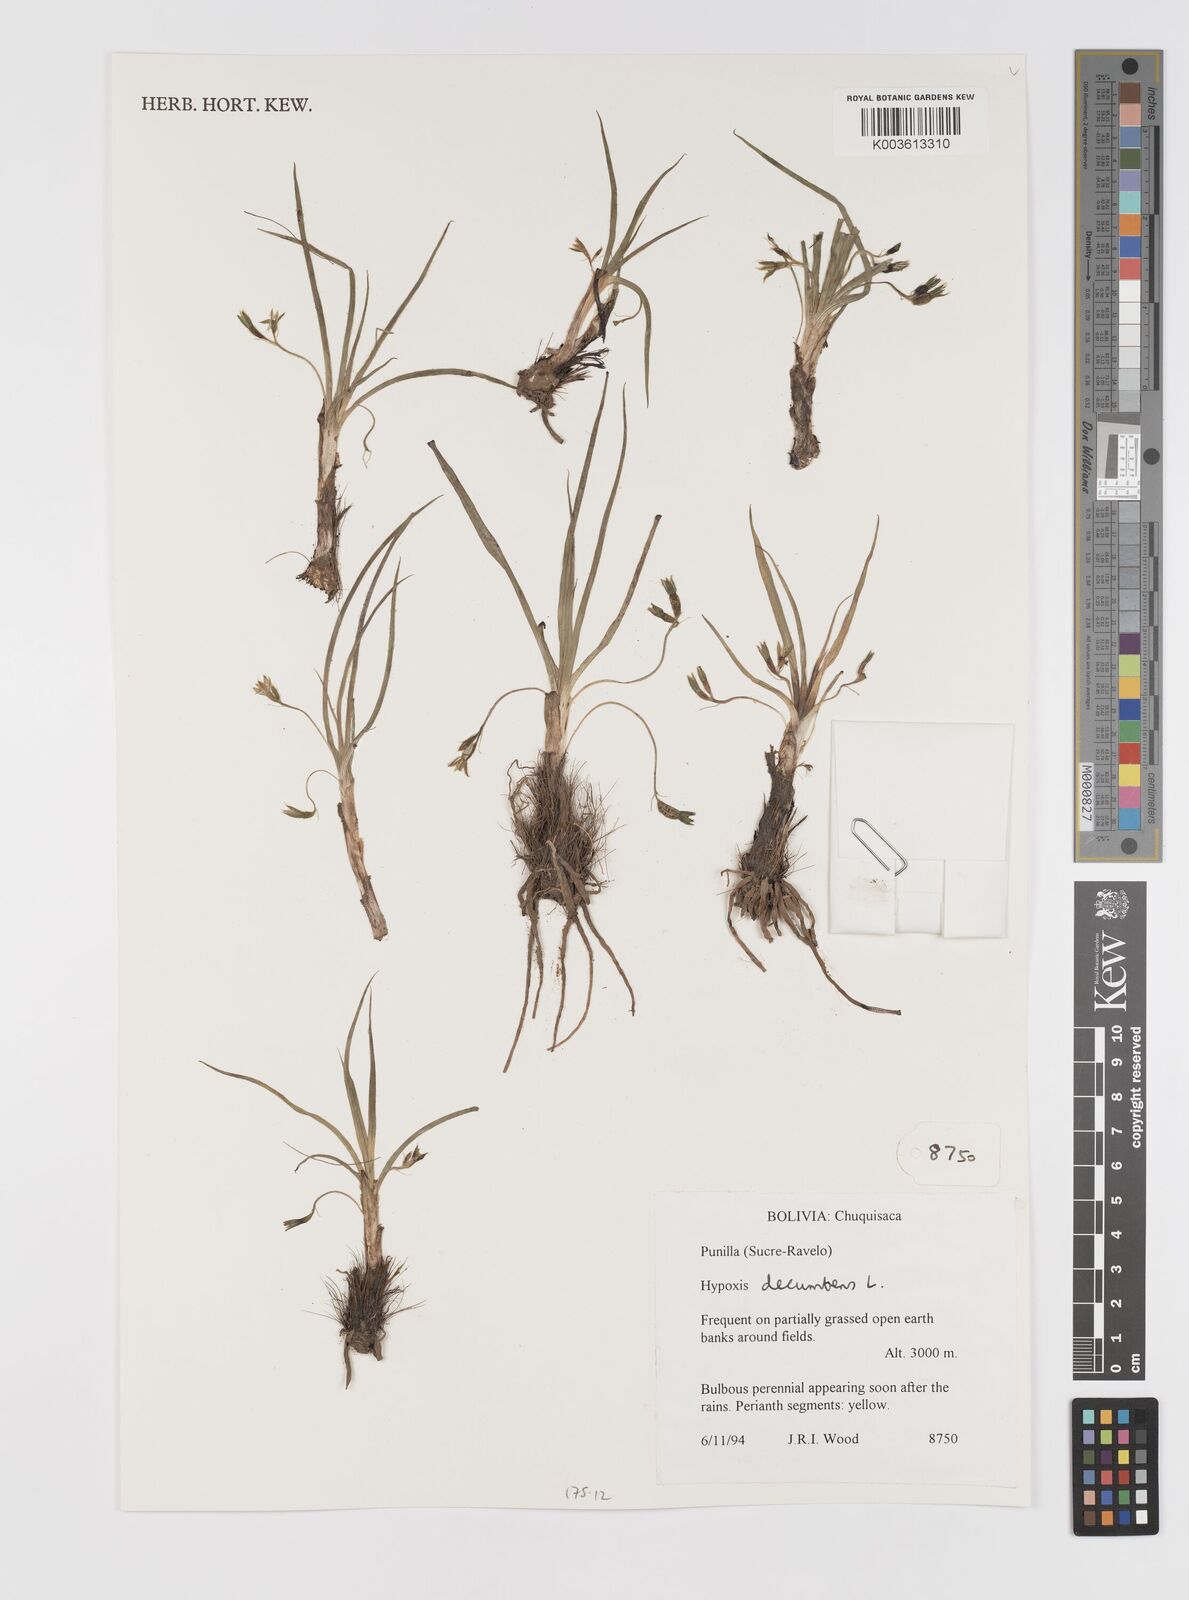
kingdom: Plantae
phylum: Tracheophyta
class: Liliopsida
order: Asparagales
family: Hypoxidaceae
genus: Hypoxis
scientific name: Hypoxis decumbens
